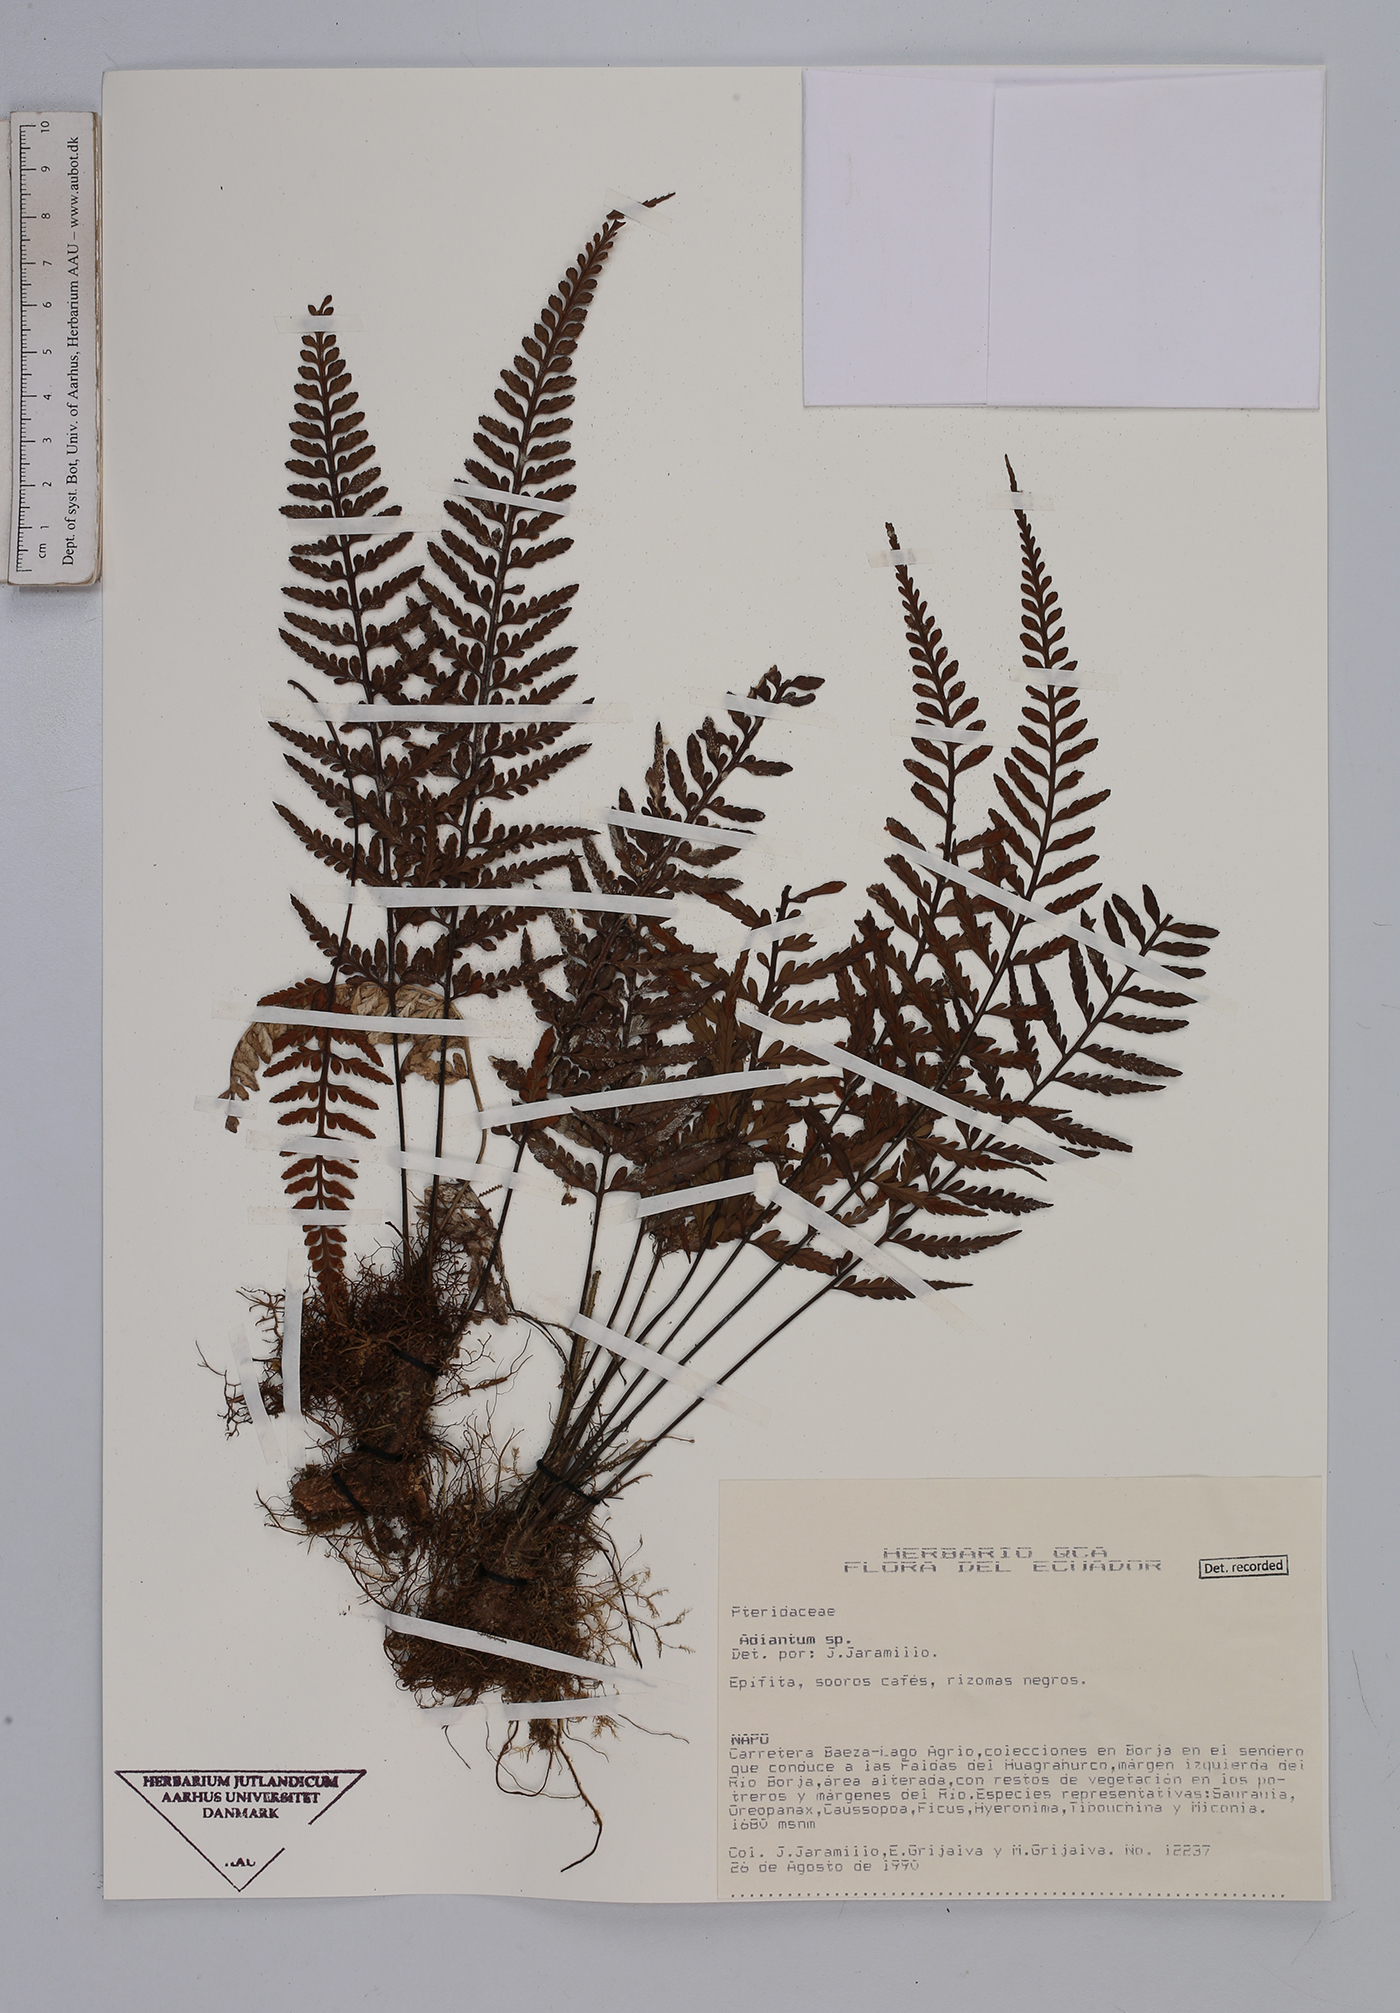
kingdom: Plantae
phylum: Tracheophyta
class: Polypodiopsida
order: Polypodiales
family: Aspleniaceae
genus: Asplenium
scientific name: Asplenium
